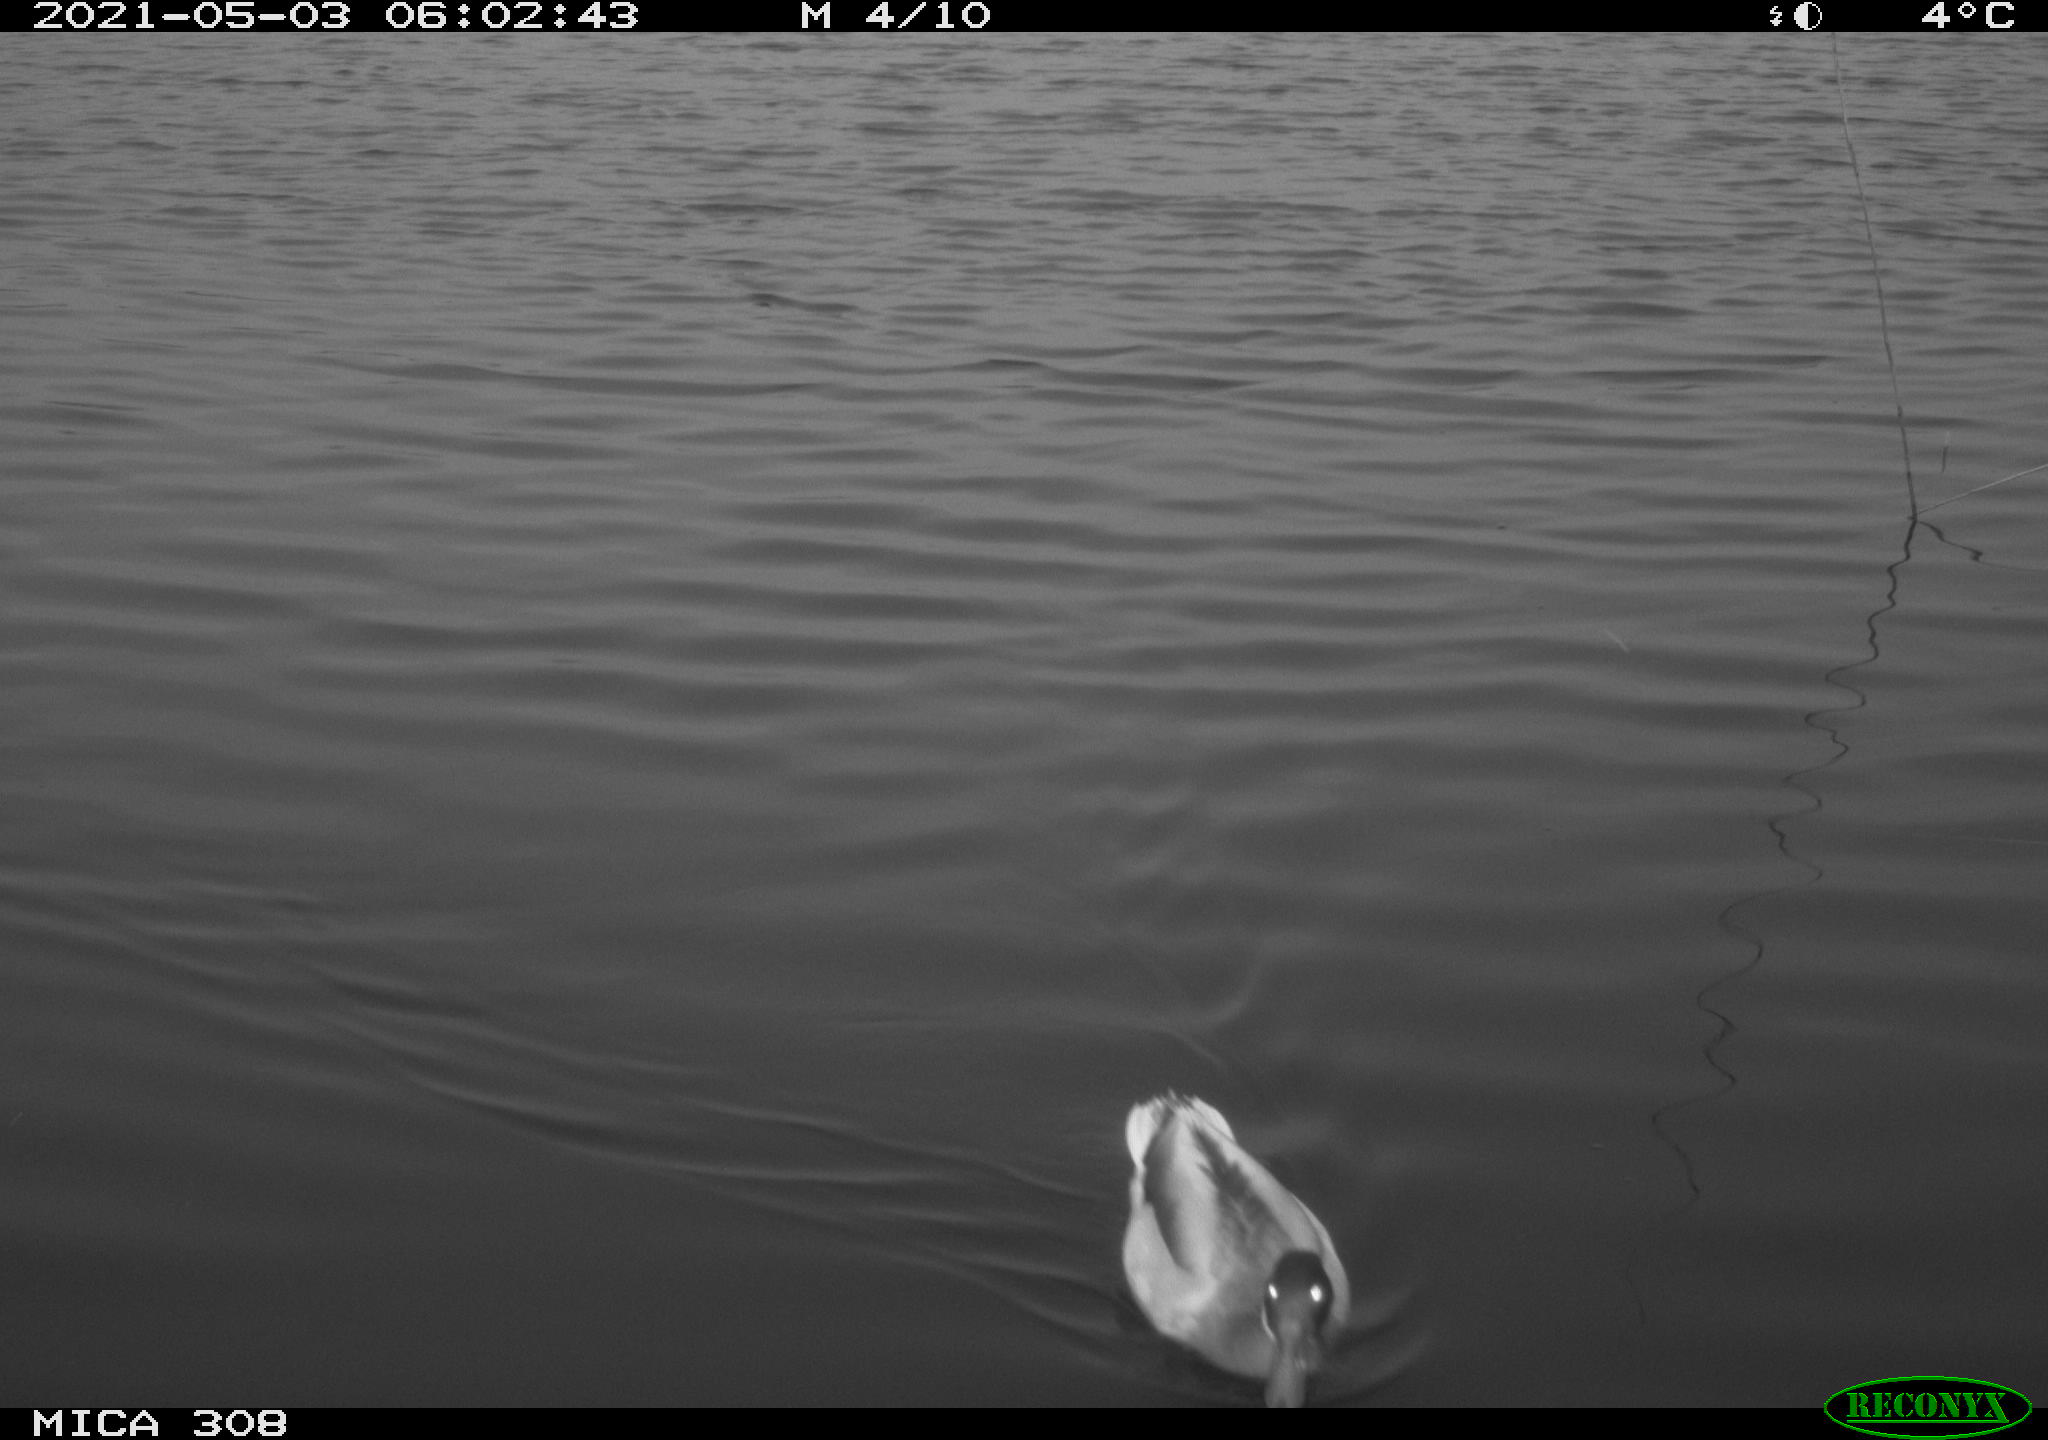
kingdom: Animalia
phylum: Chordata
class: Aves
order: Anseriformes
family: Anatidae
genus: Anas
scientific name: Anas platyrhynchos
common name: Mallard
